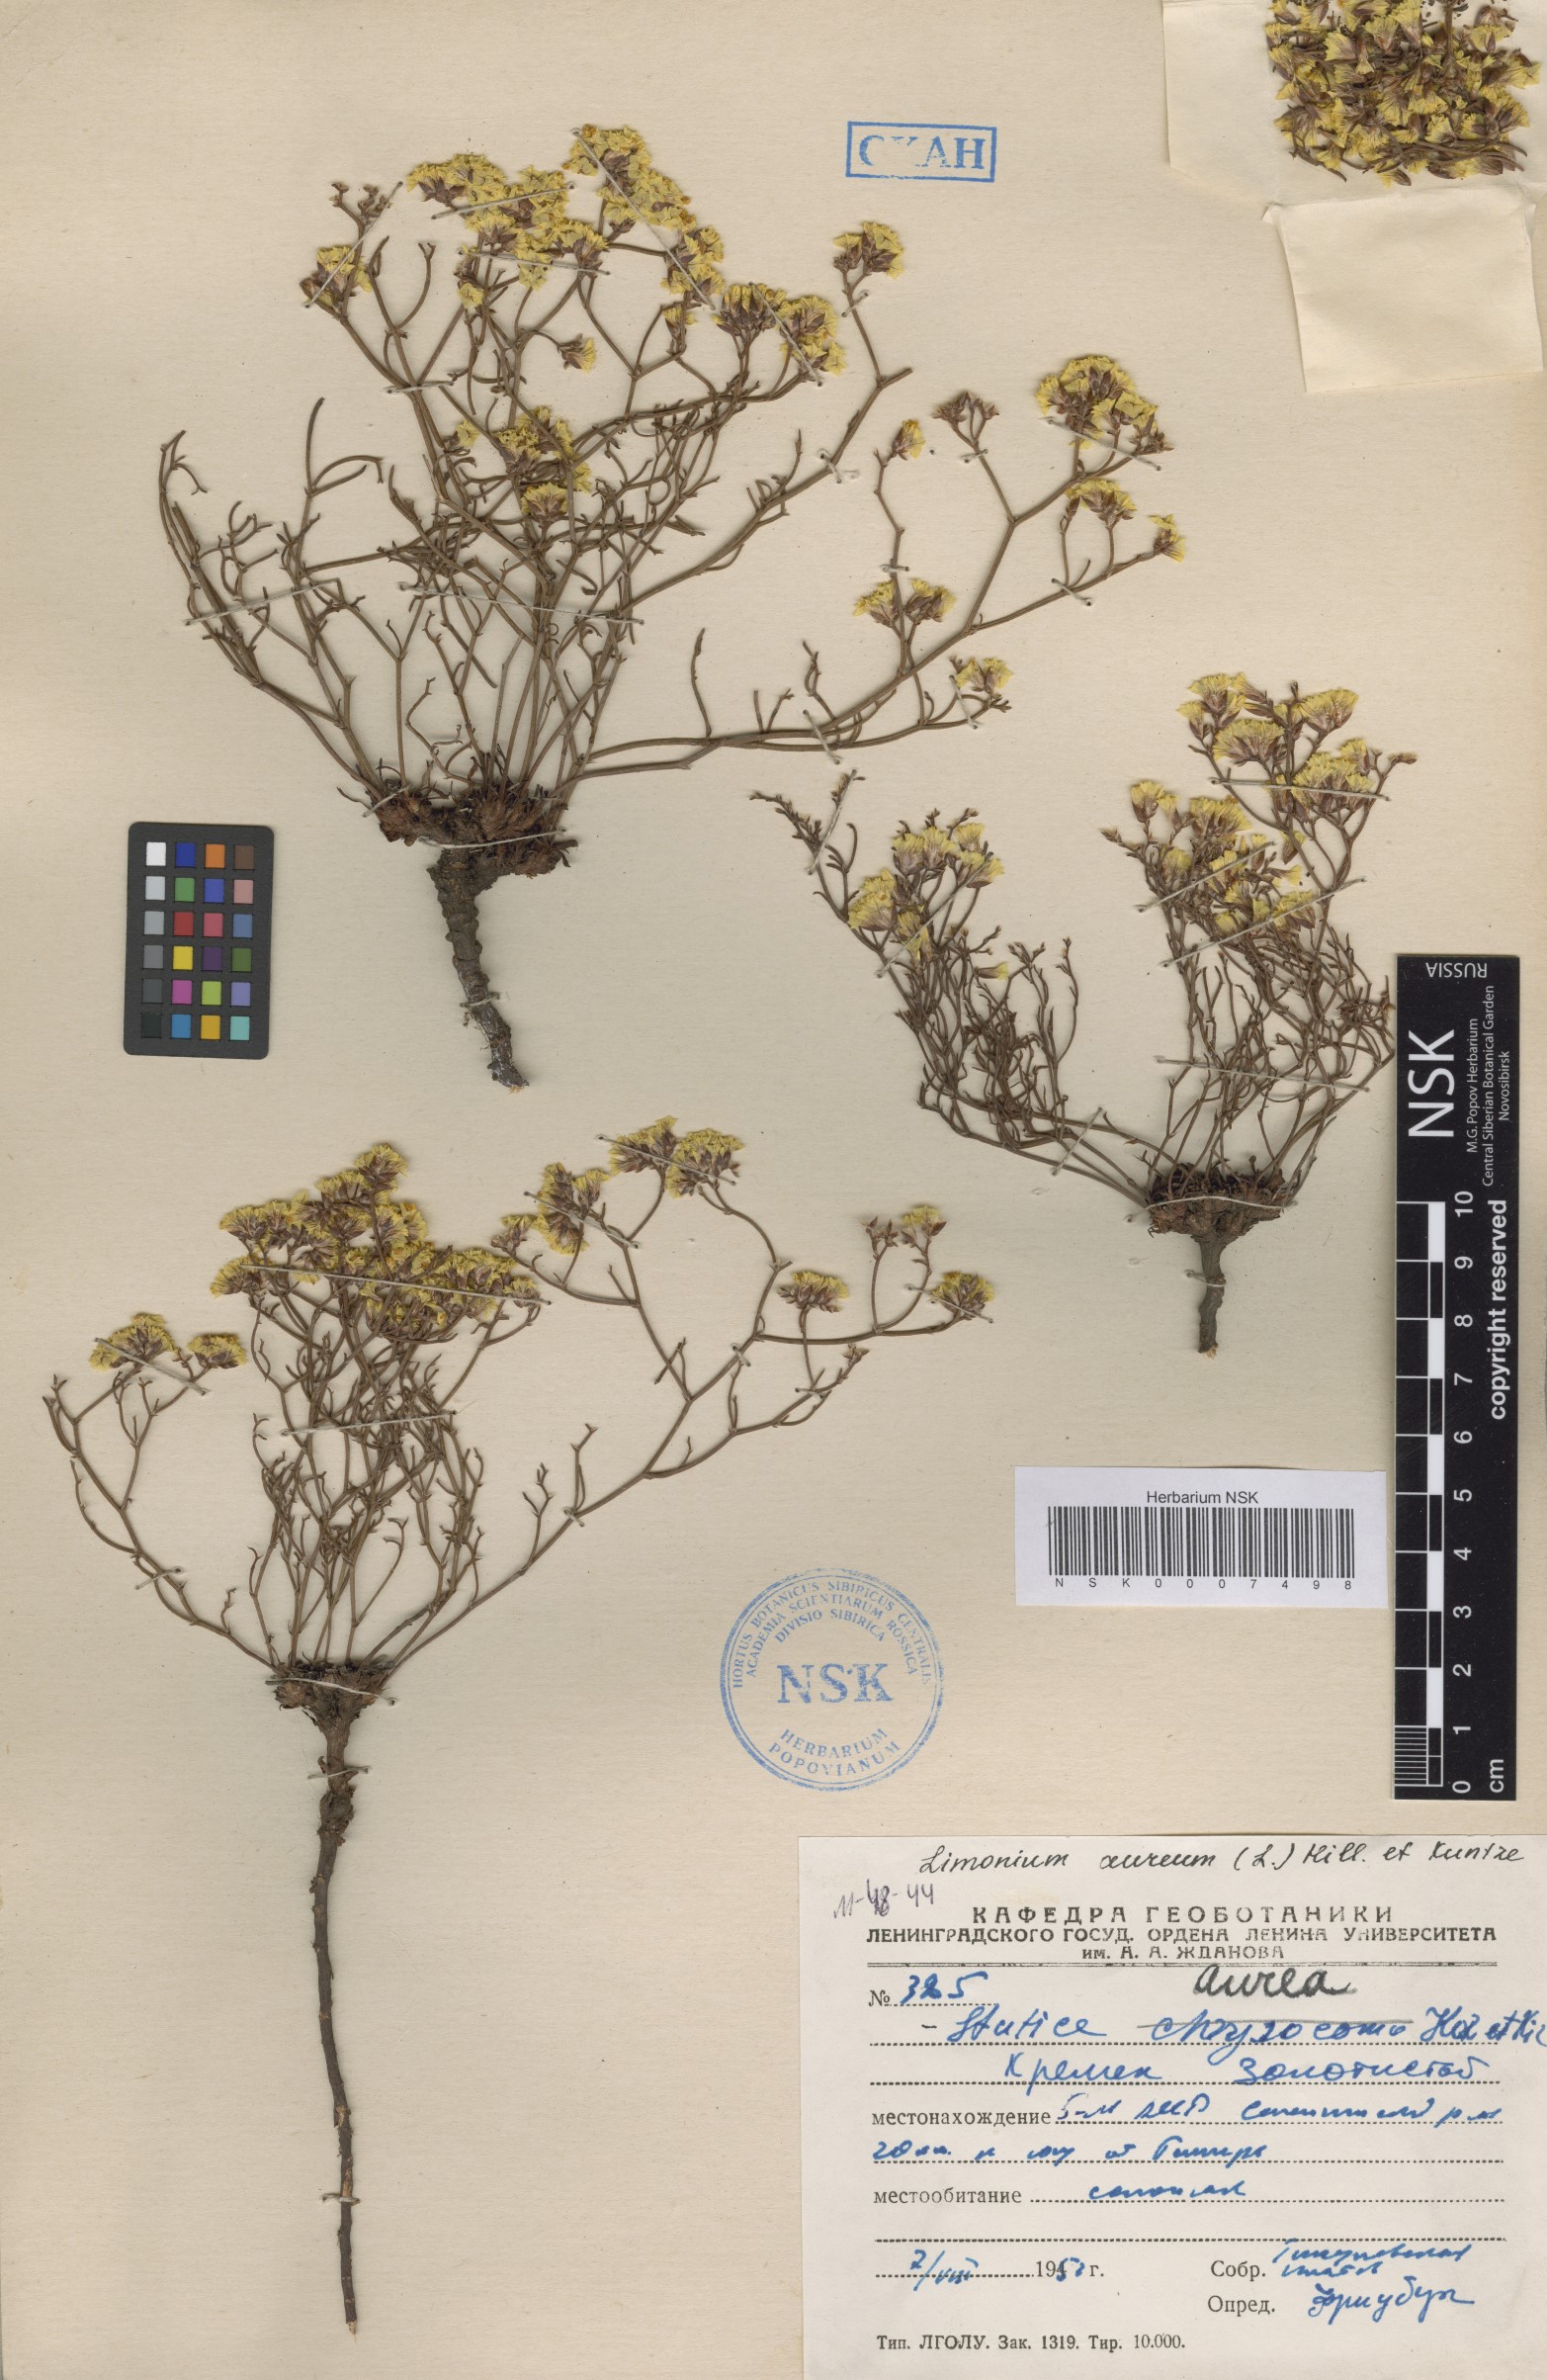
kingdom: Plantae
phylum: Tracheophyta
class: Magnoliopsida
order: Caryophyllales
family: Plumbaginaceae
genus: Limonium
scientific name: Limonium aureum
